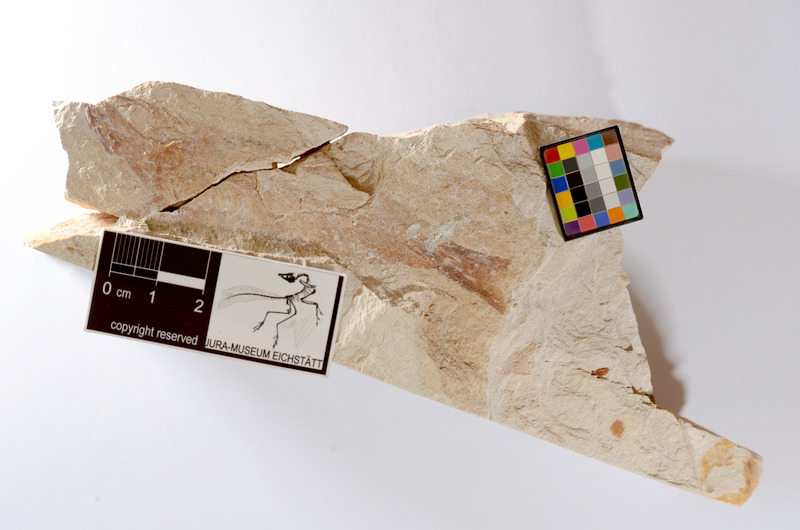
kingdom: Animalia
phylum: Chordata
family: Ascalaboidae
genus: Tharsis
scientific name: Tharsis dubius
